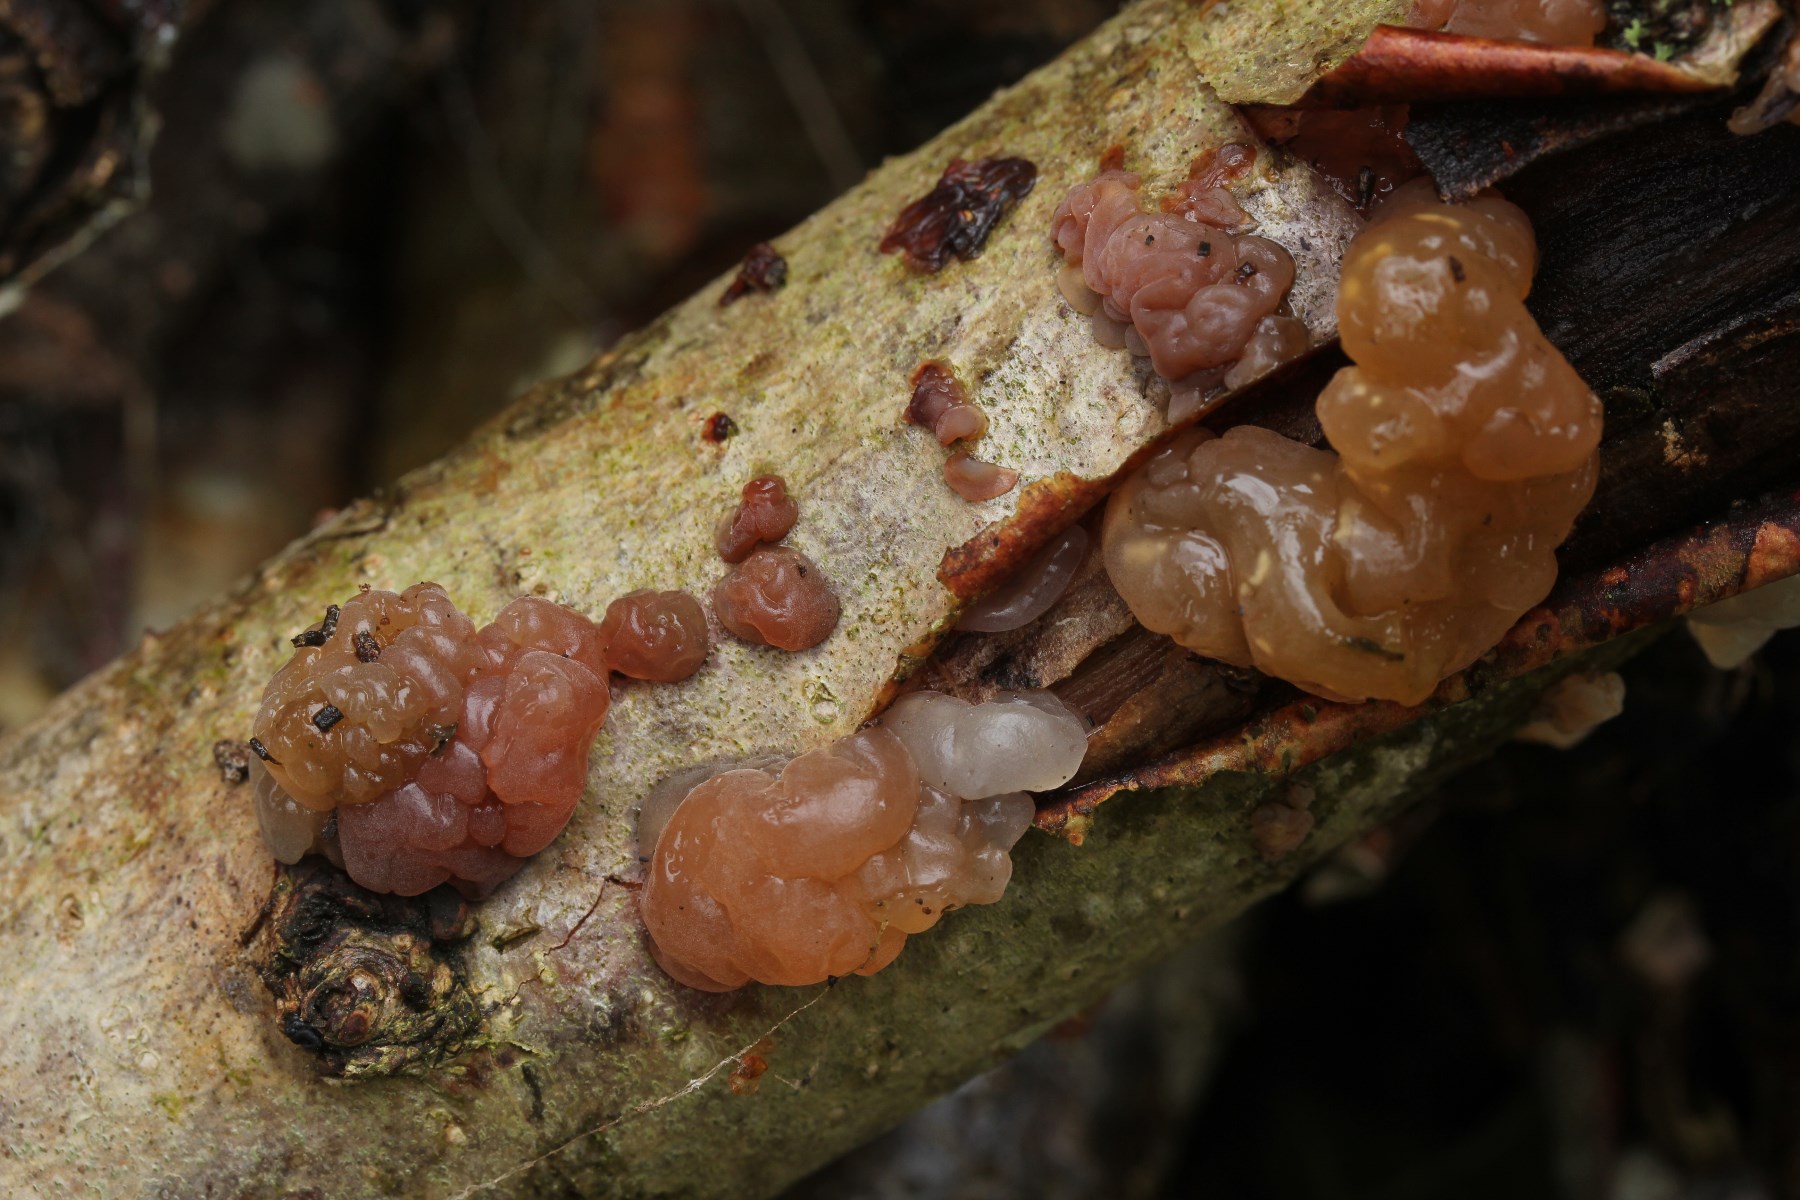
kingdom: Fungi
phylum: Basidiomycota
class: Agaricomycetes
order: Auriculariales
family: Hyaloriaceae
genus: Myxarium
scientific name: Myxarium hyalinum
